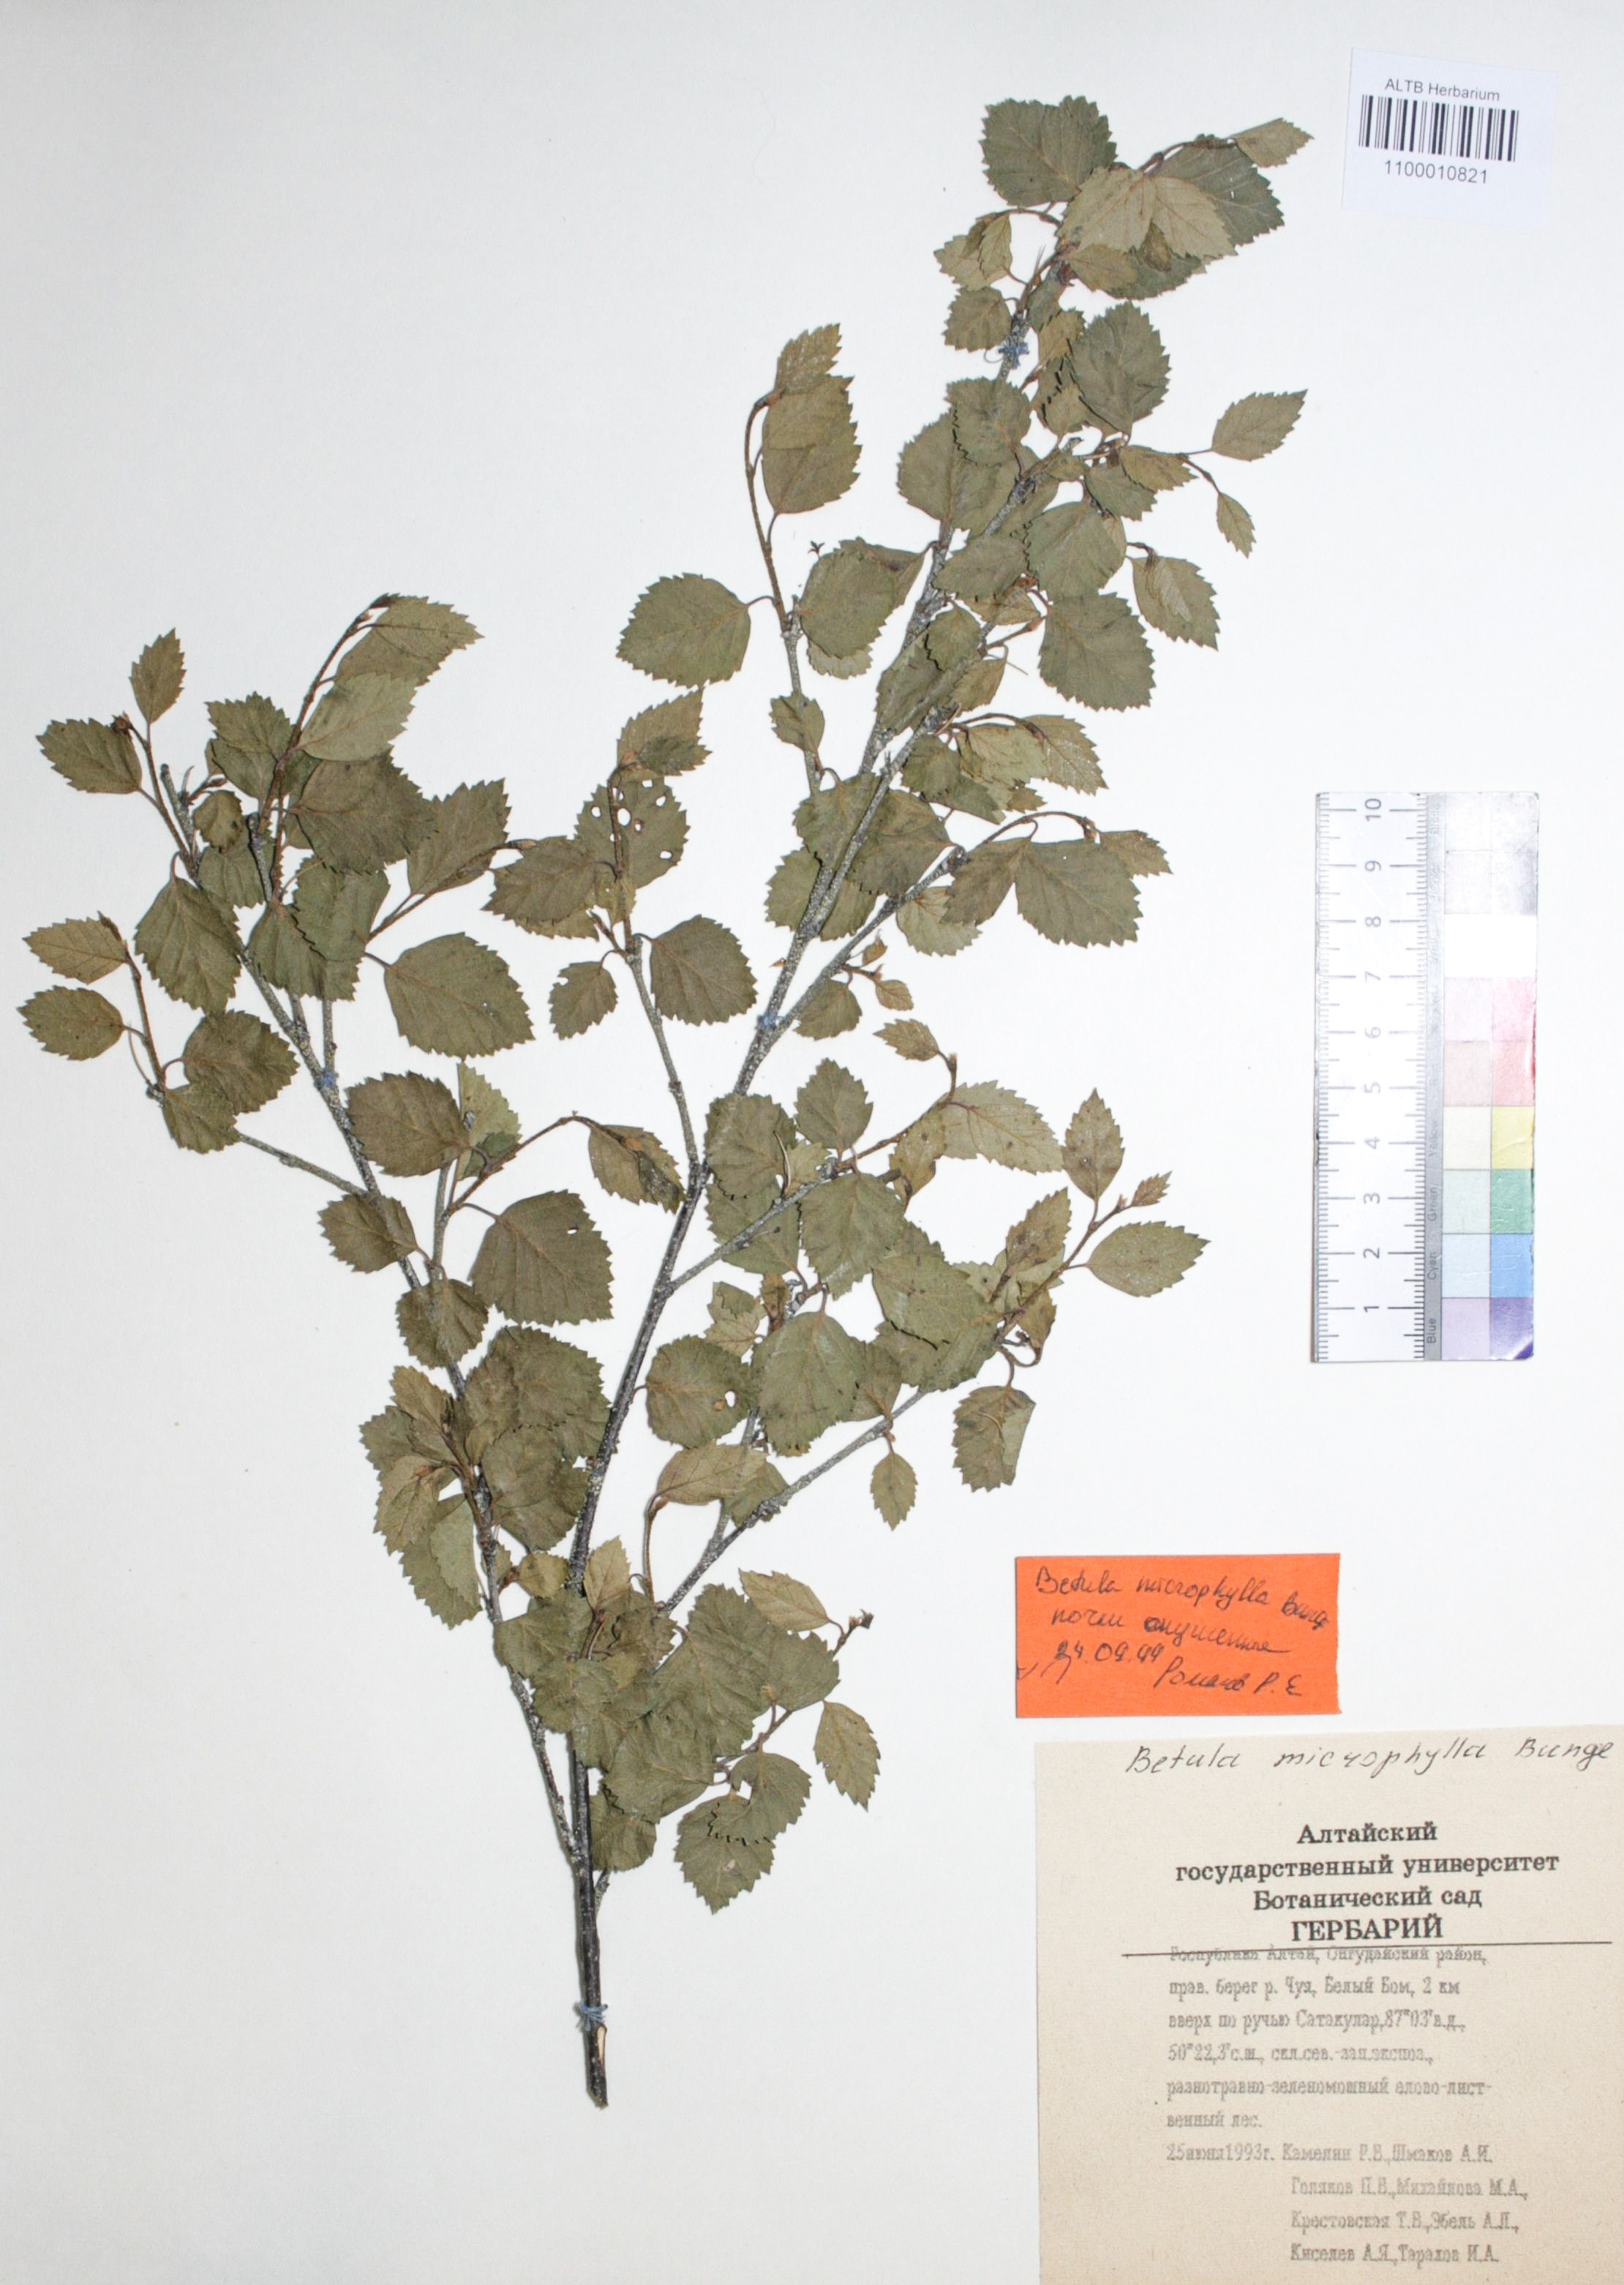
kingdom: Plantae
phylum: Tracheophyta
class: Magnoliopsida
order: Fagales
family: Betulaceae
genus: Betula
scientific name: Betula microphylla
